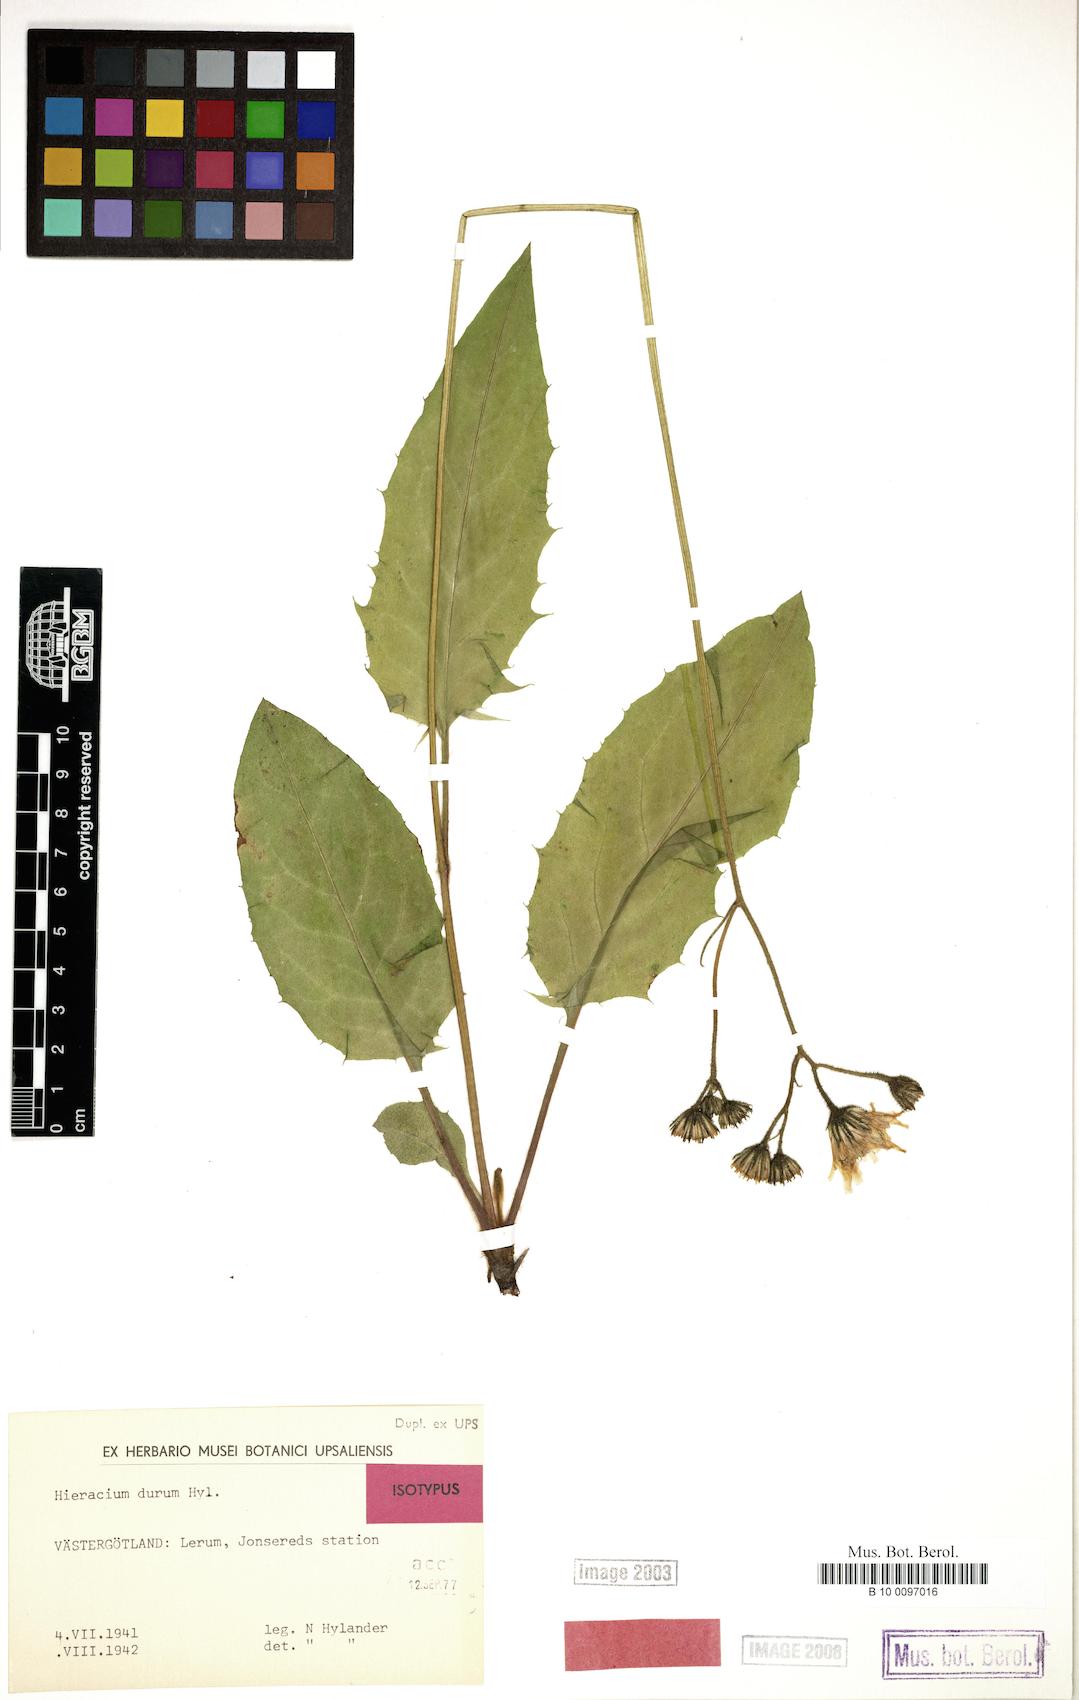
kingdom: Plantae
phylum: Tracheophyta
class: Magnoliopsida
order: Asterales
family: Asteraceae
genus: Hieracium
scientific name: Hieracium durum
